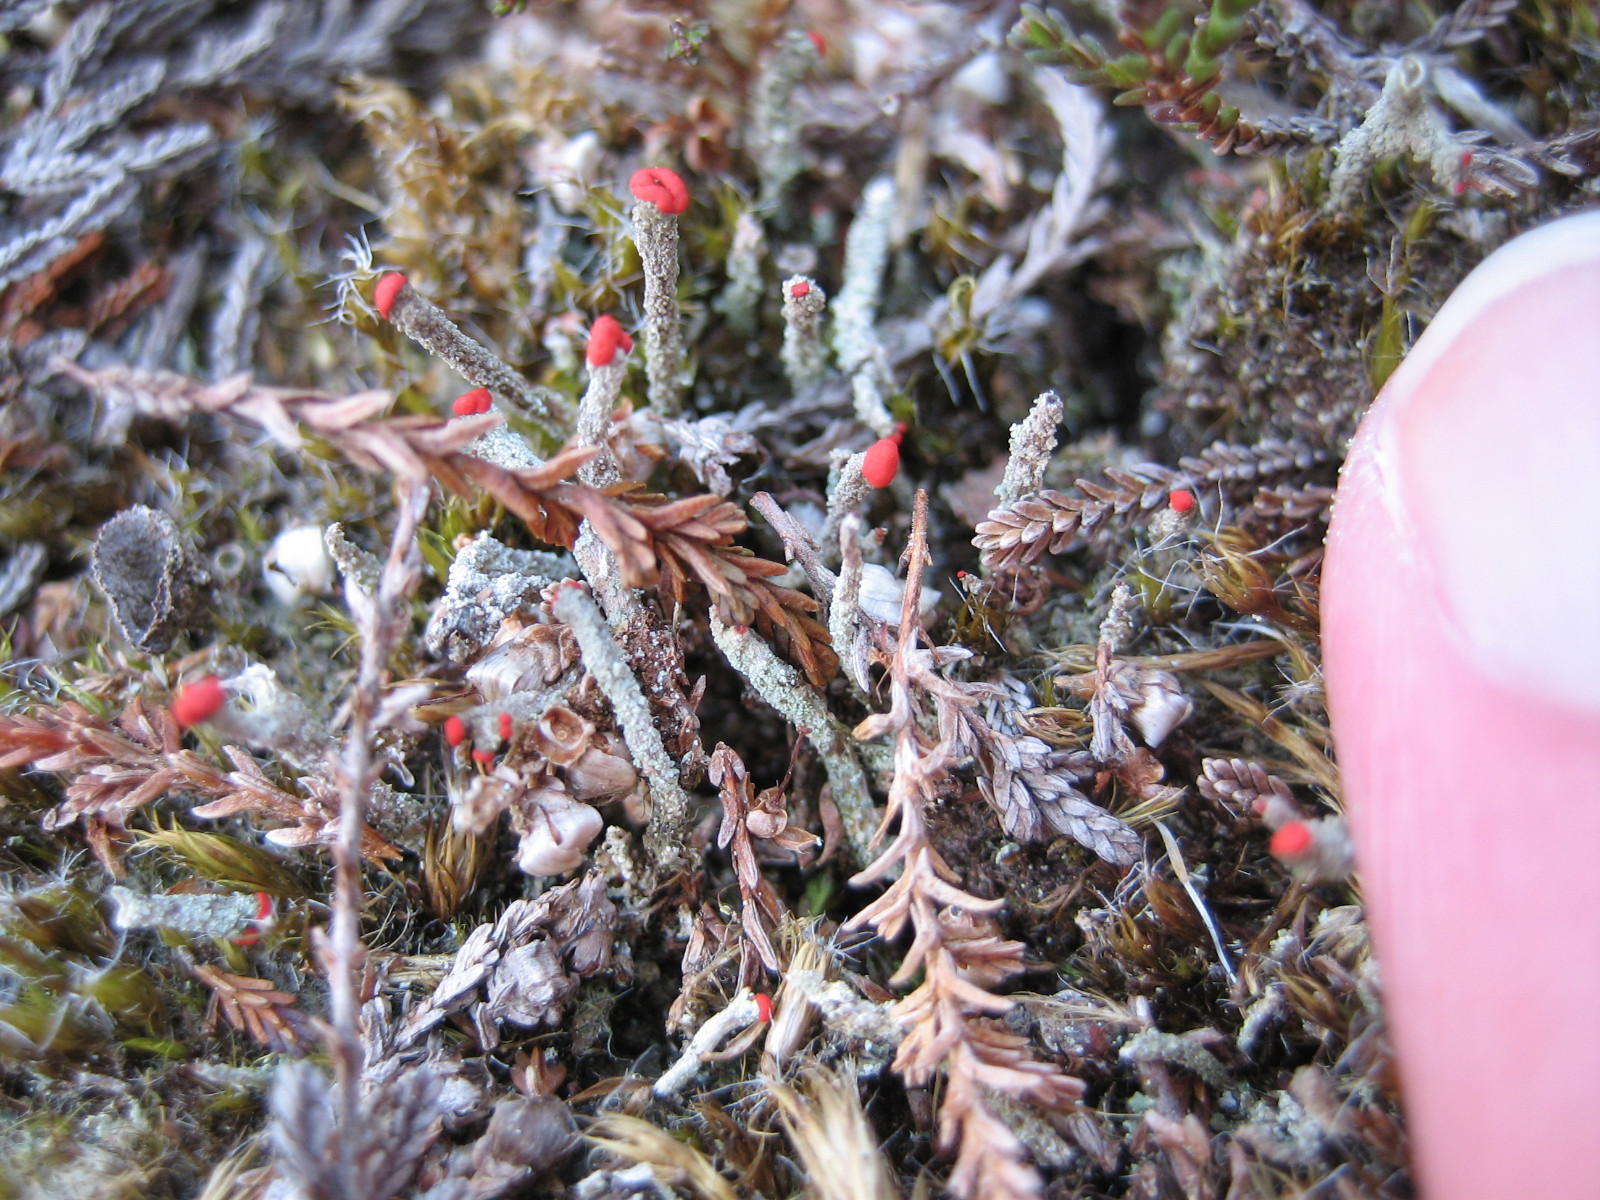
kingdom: Fungi
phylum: Ascomycota
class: Lecanoromycetes
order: Lecanorales
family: Cladoniaceae
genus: Cladonia
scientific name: Cladonia floerkeana
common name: lakrød bægerlav
